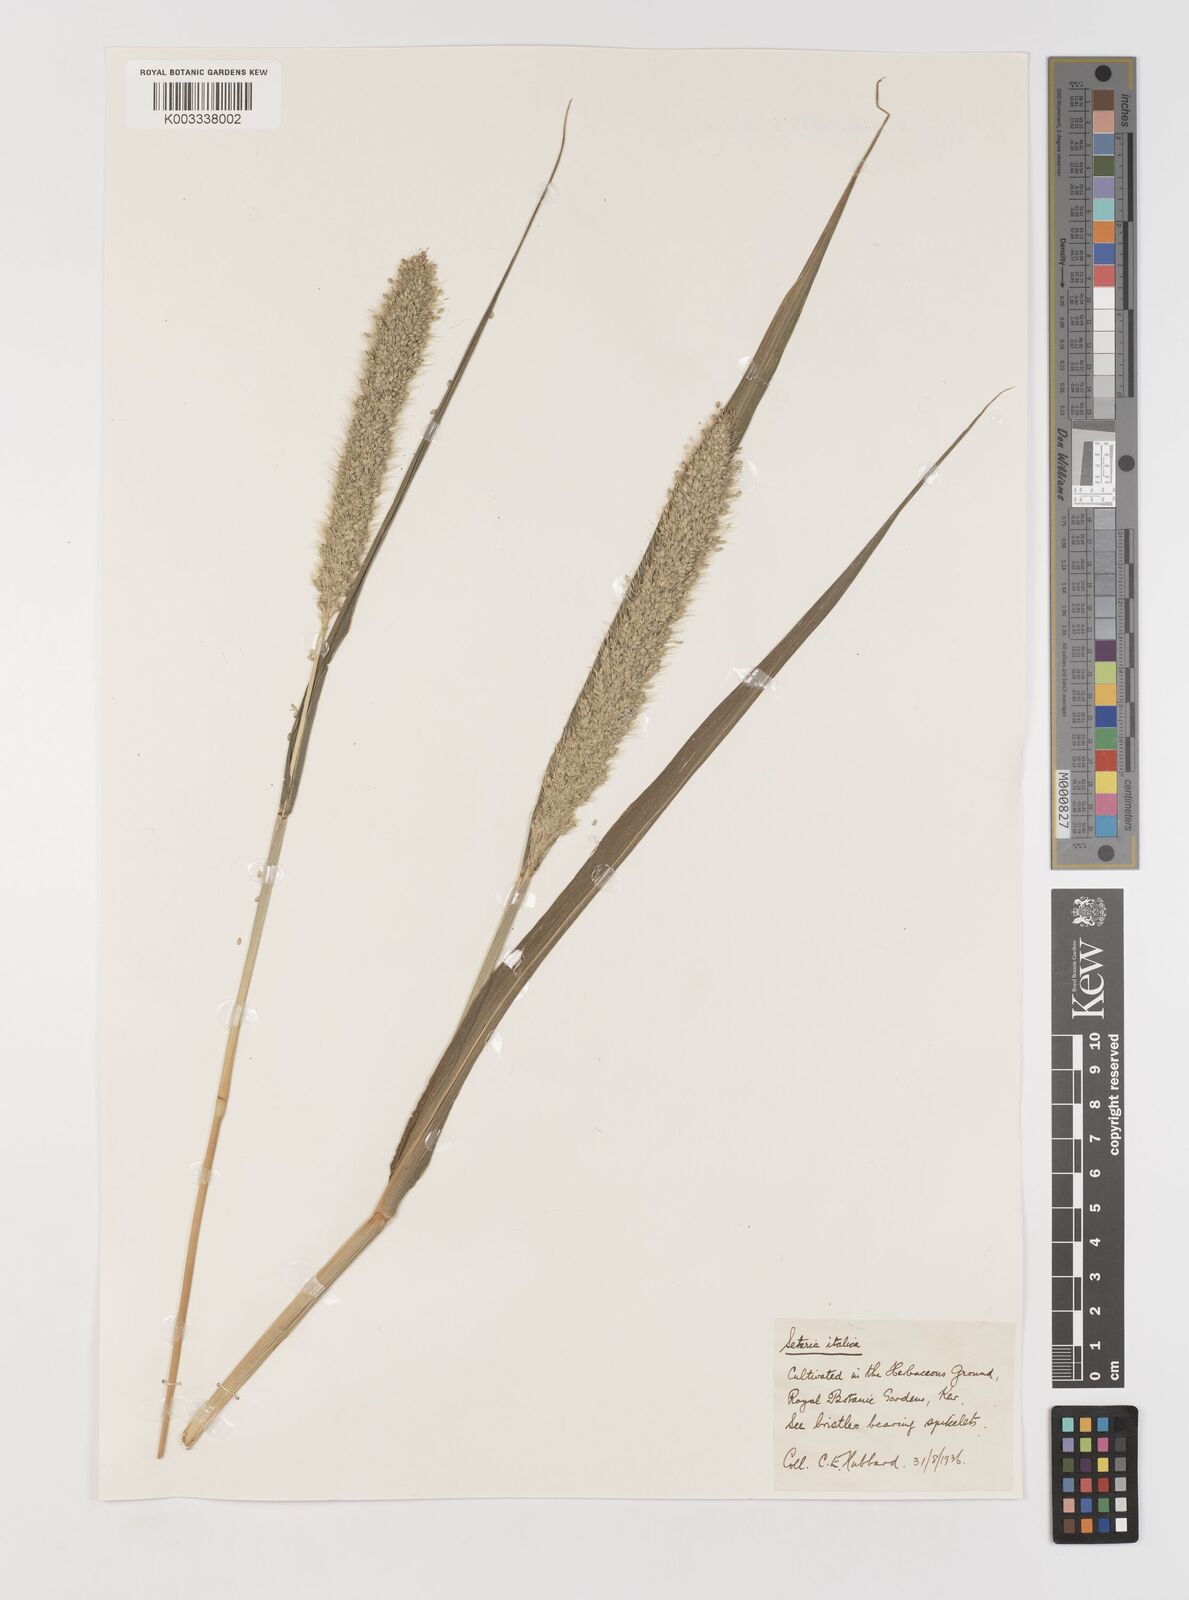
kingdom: Plantae
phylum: Tracheophyta
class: Liliopsida
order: Poales
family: Poaceae
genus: Setaria
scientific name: Setaria italica
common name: Foxtail bristle-grass
